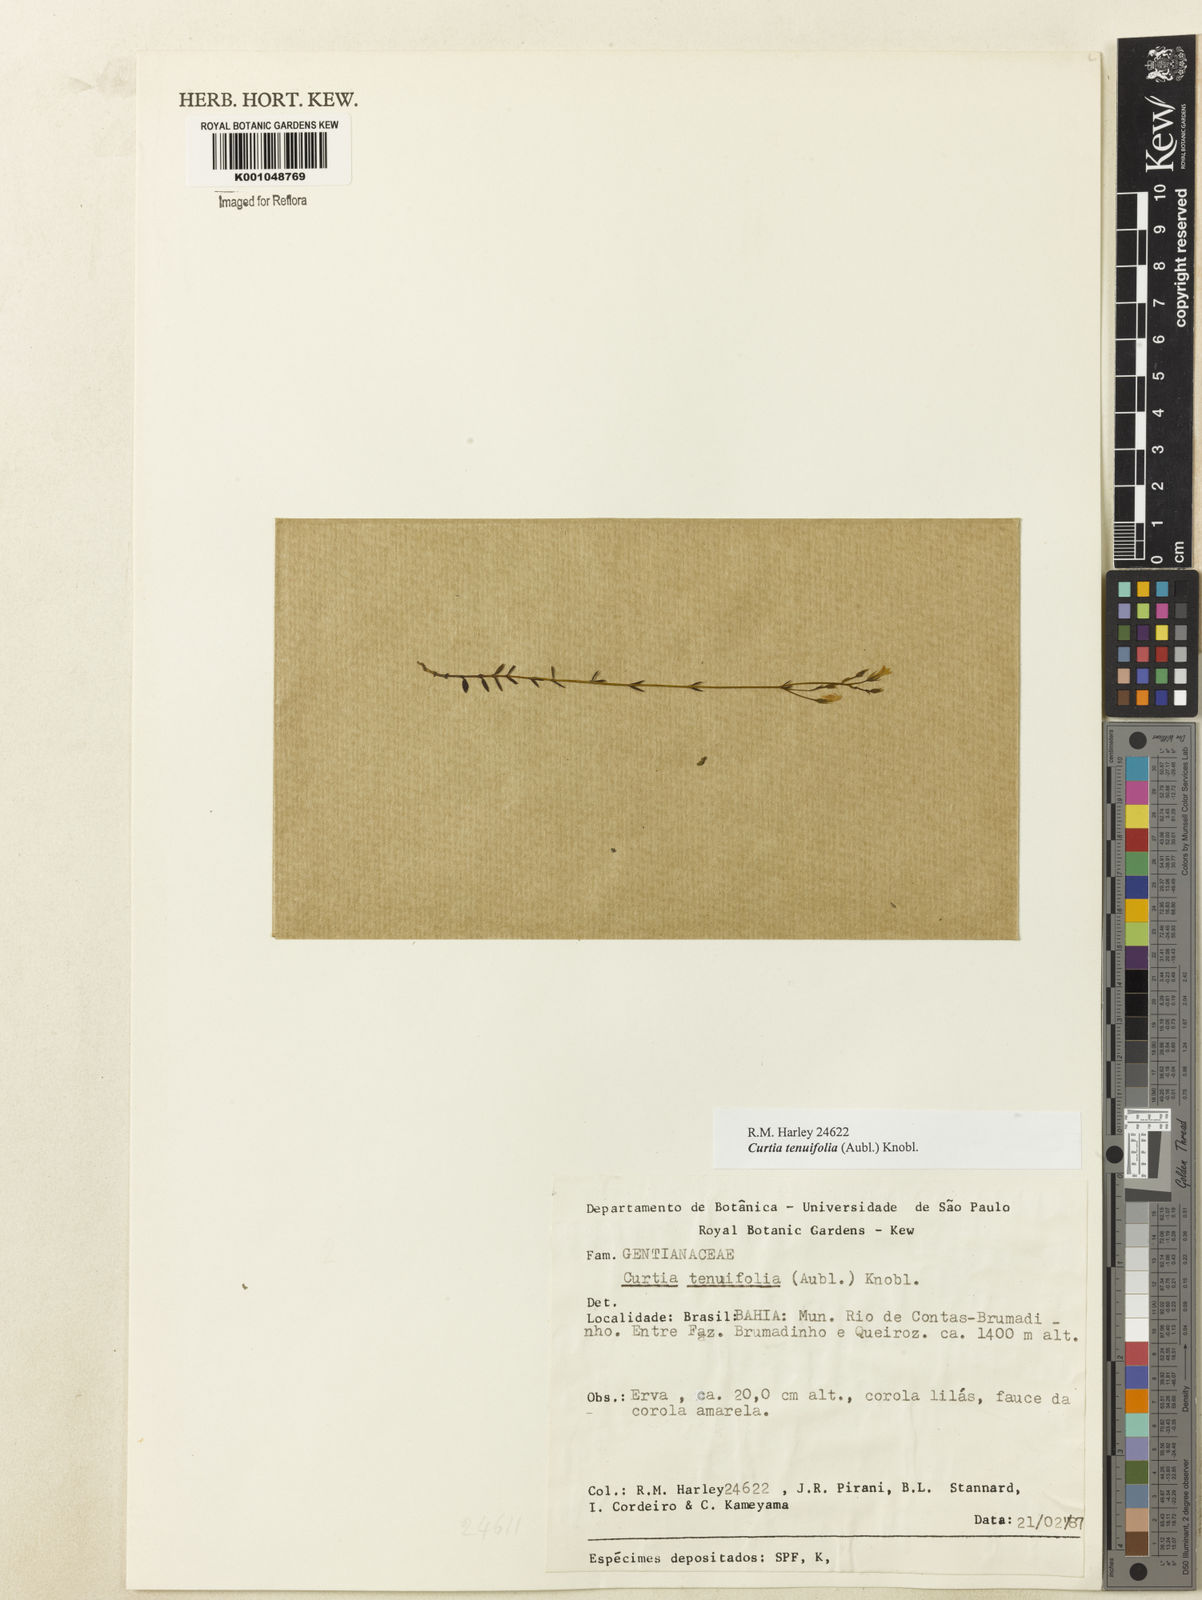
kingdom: Plantae
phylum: Tracheophyta
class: Magnoliopsida
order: Gentianales
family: Gentianaceae
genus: Curtia
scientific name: Curtia tenuifolia
